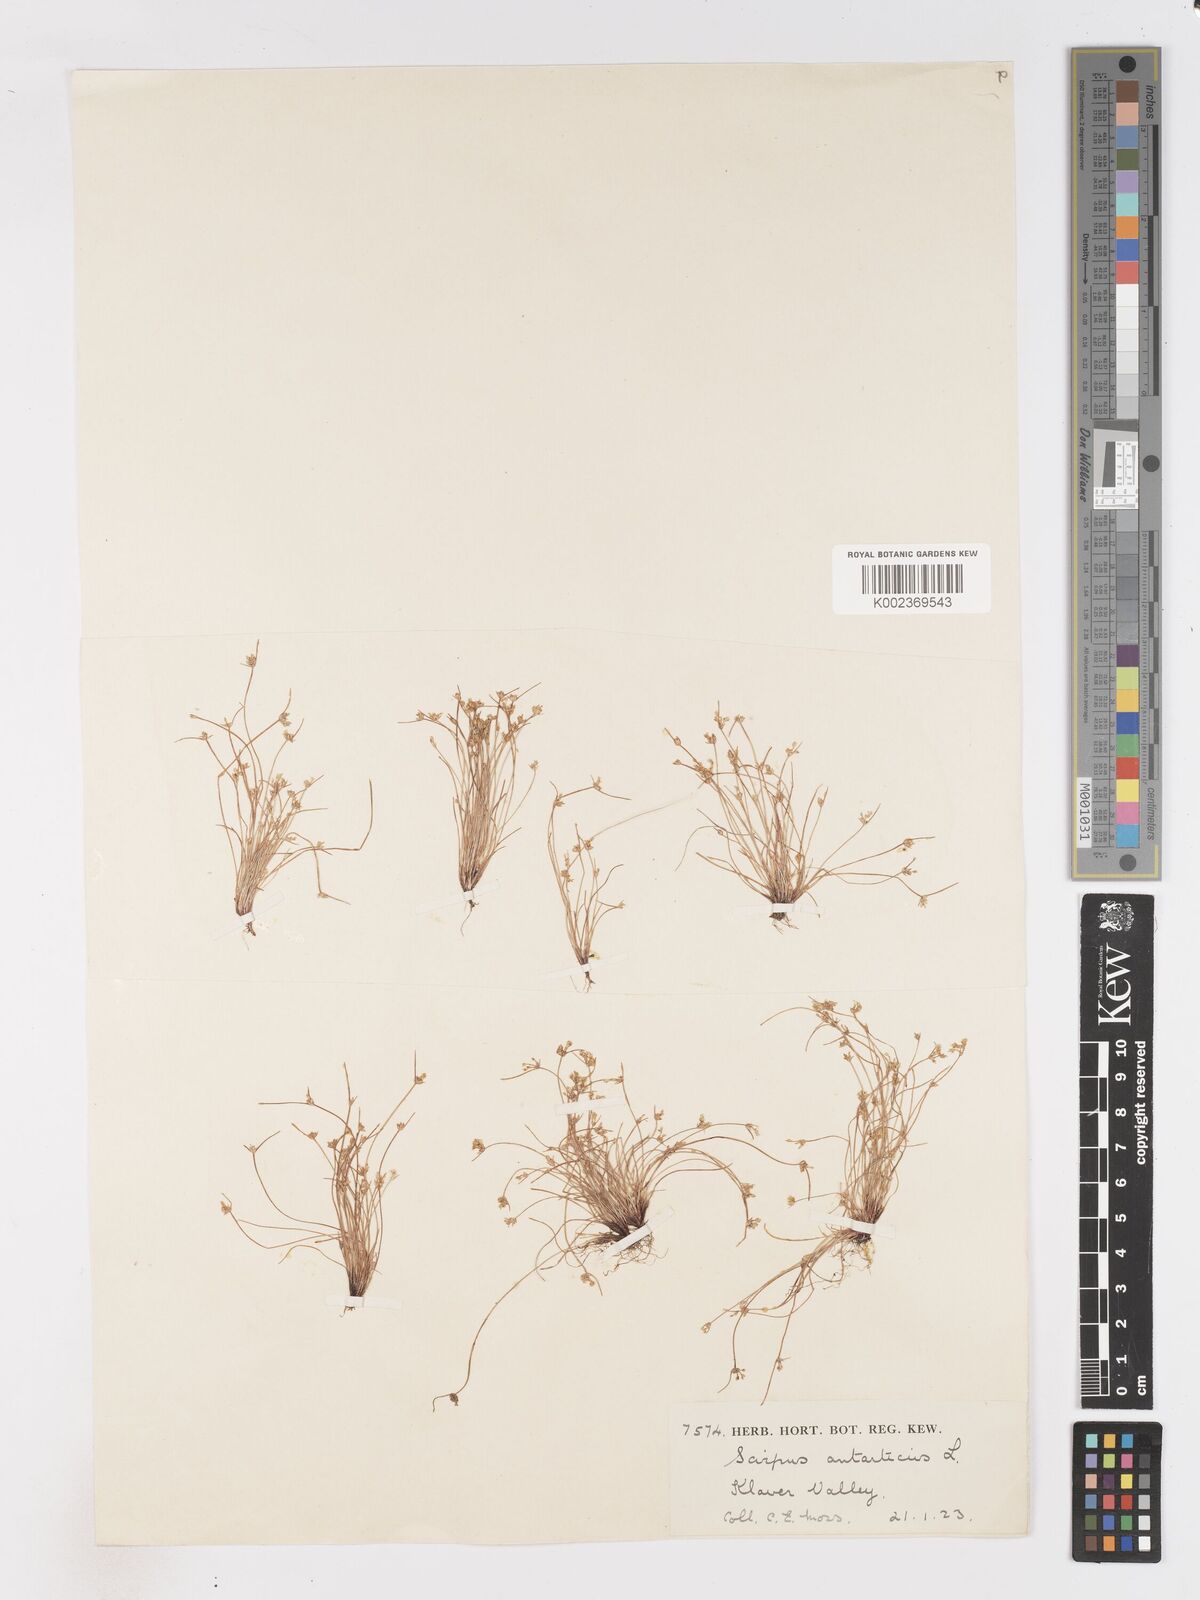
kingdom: Plantae
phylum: Tracheophyta
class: Liliopsida
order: Poales
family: Cyperaceae
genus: Isolepis
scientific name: Isolepis marginata
